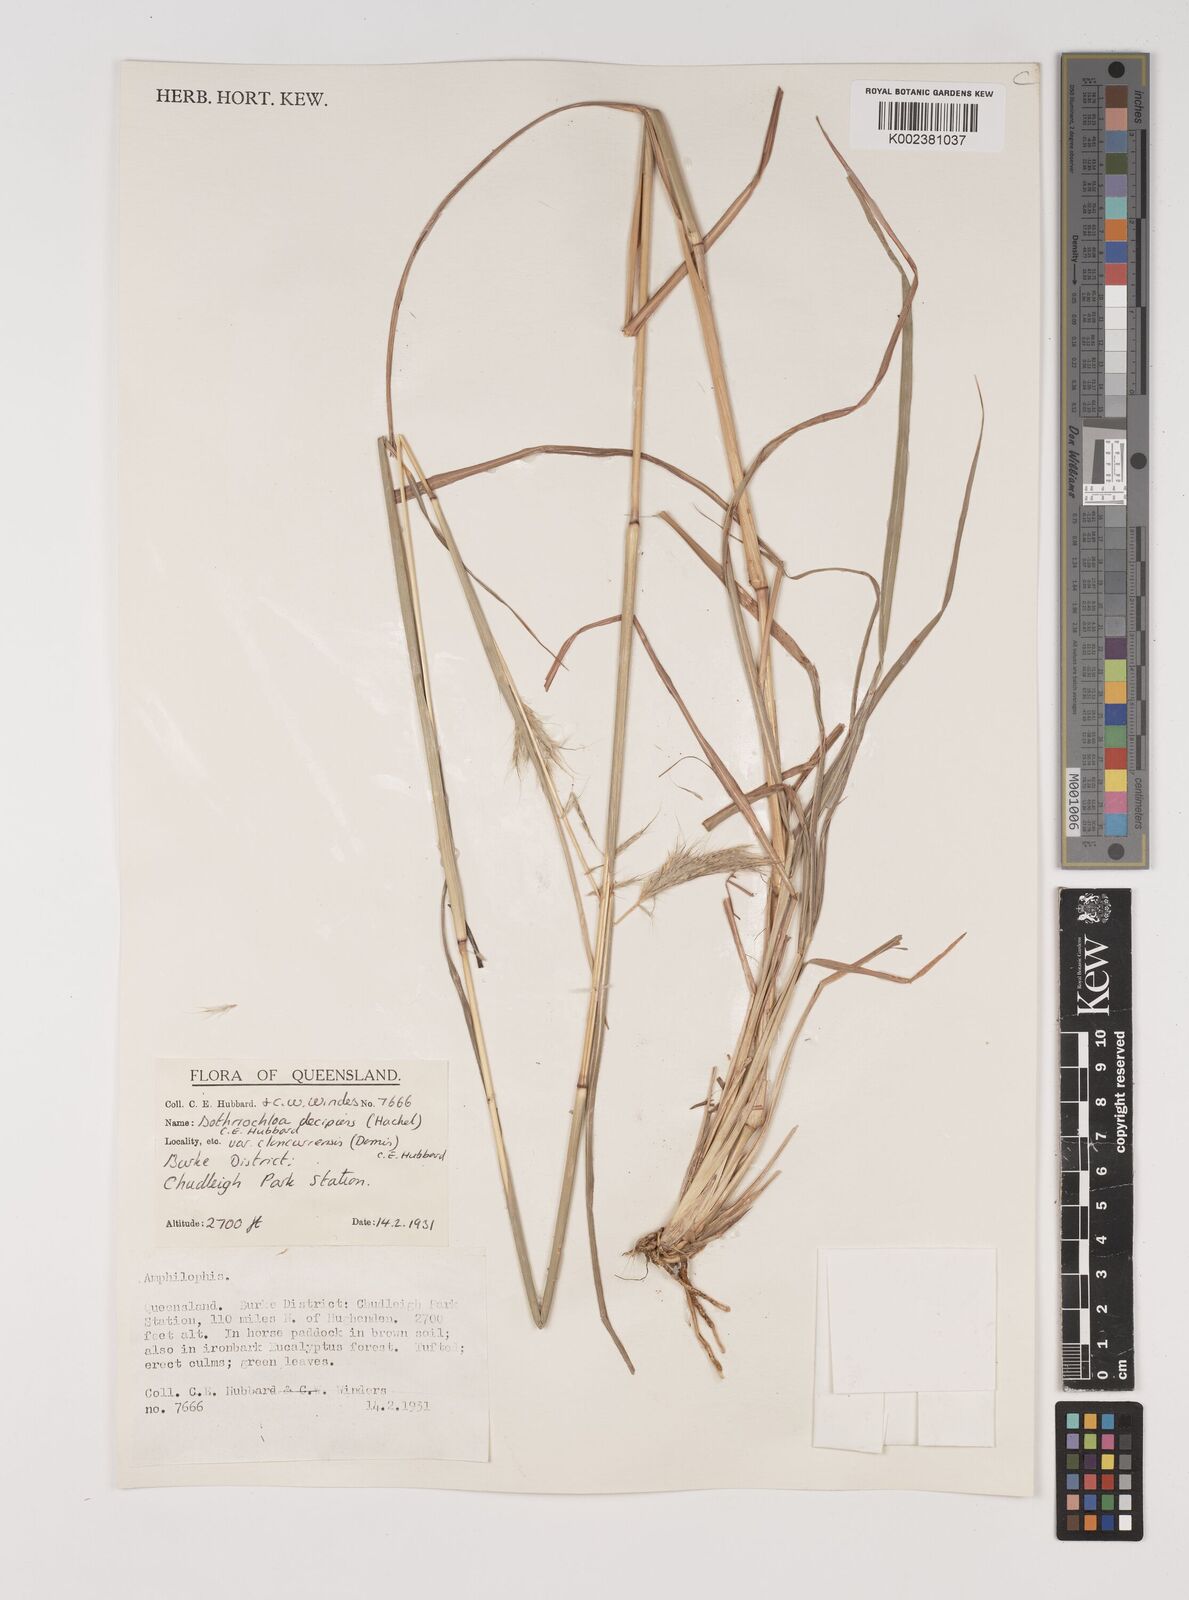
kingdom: Plantae
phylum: Tracheophyta
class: Liliopsida
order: Poales
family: Poaceae
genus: Bothriochloa
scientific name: Bothriochloa decipiens
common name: Pitted-bluegrass
